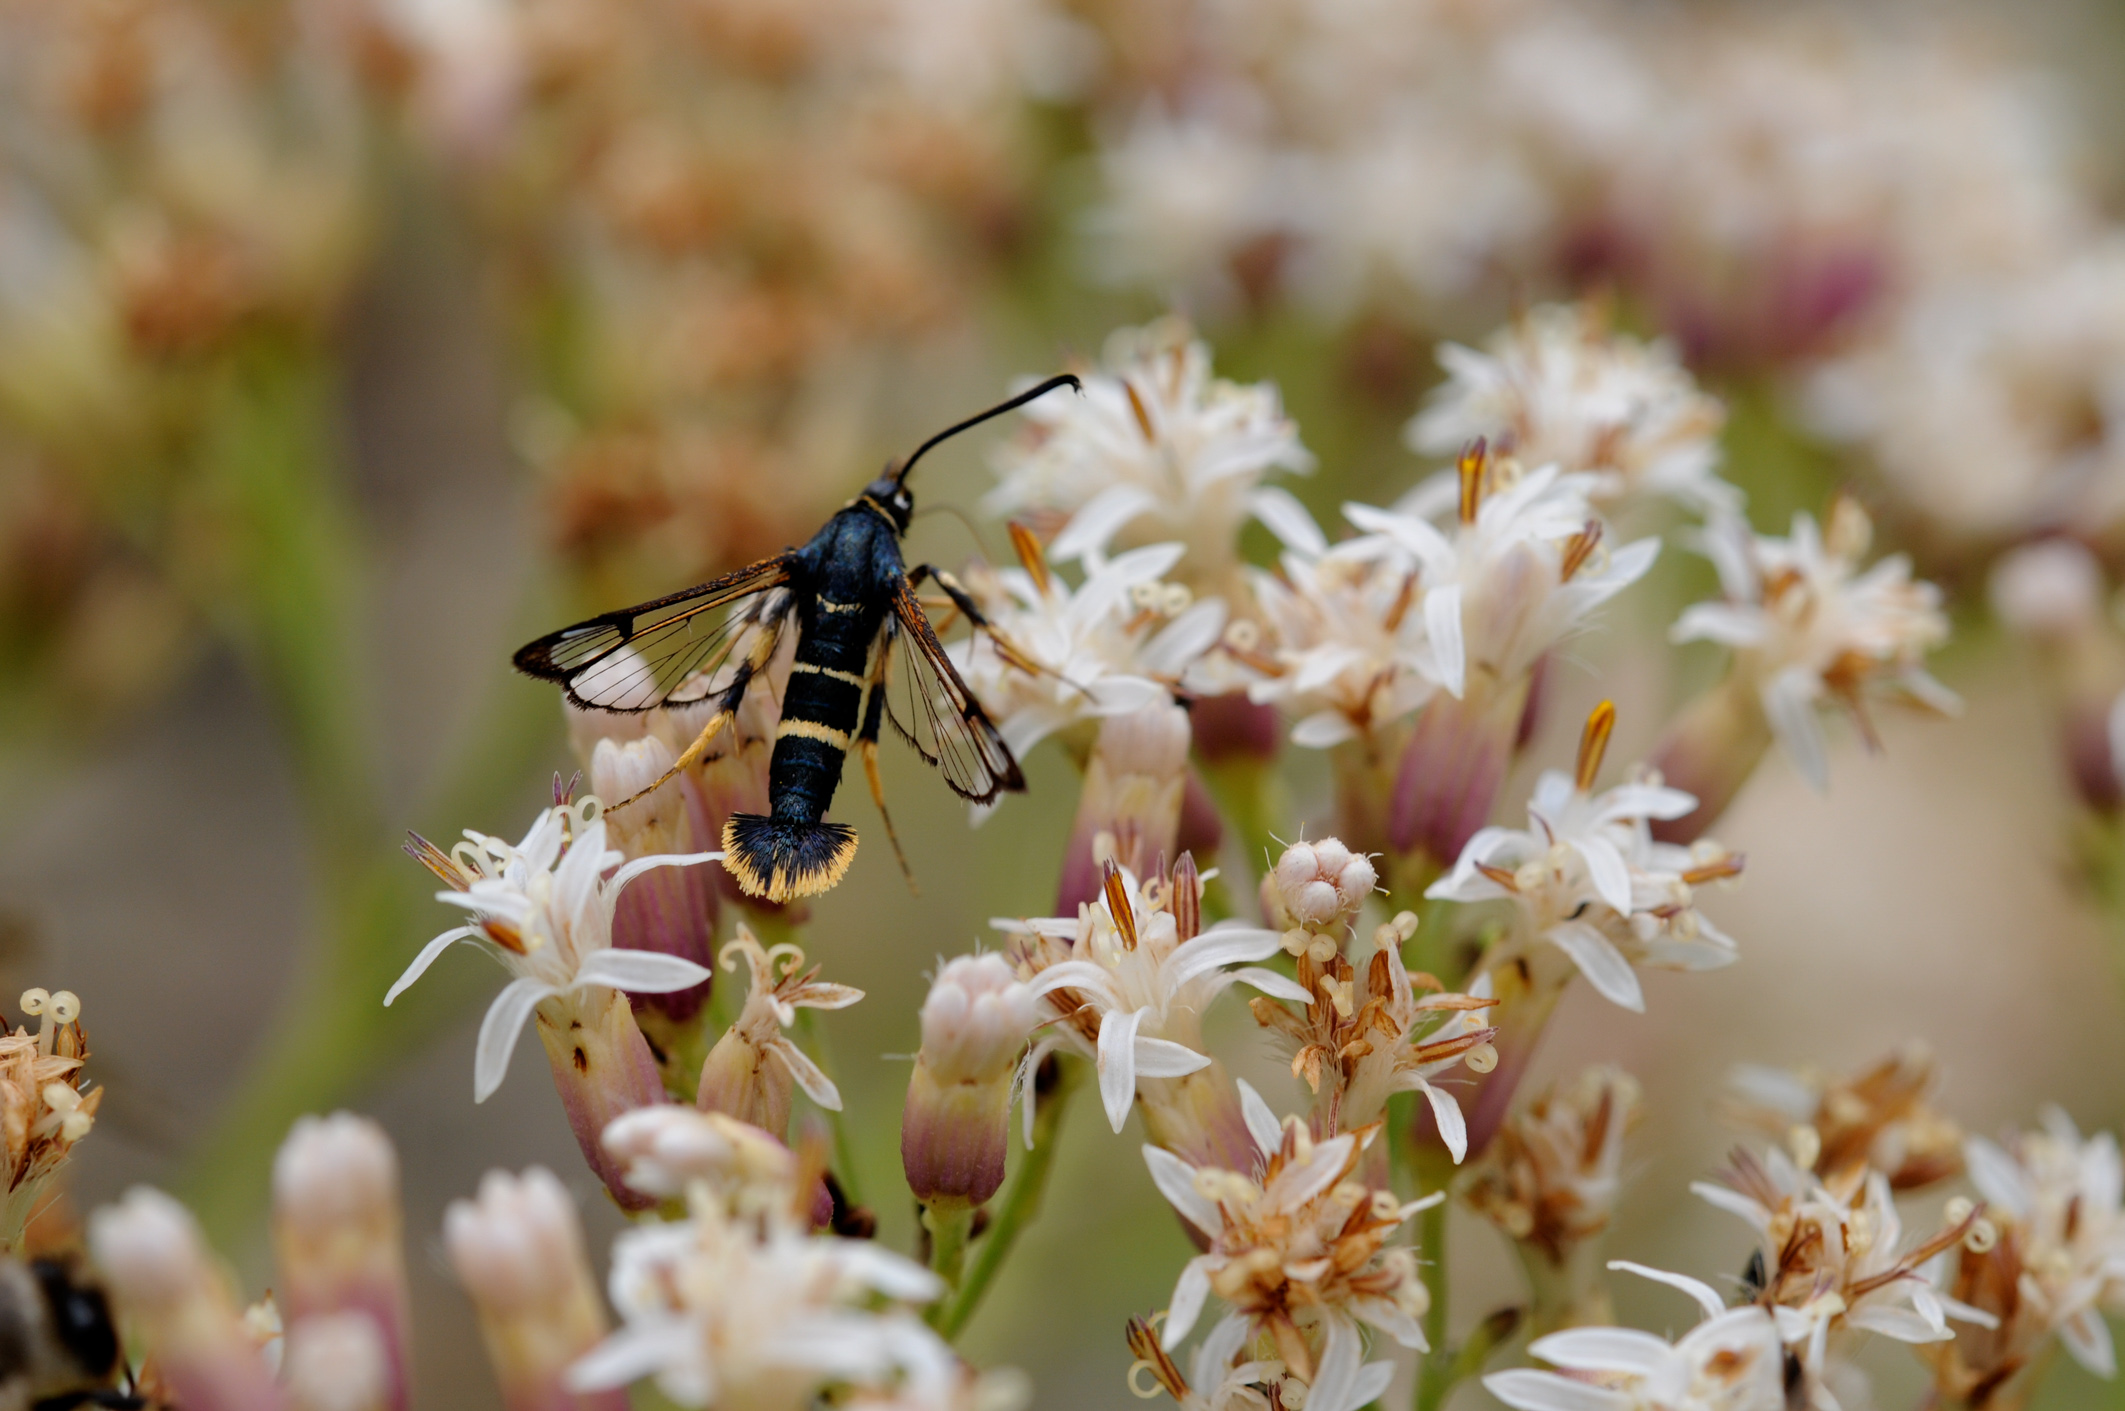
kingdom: Animalia
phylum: Arthropoda
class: Insecta
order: Lepidoptera
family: Sesiidae
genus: Synanthedon
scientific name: Synanthedon vespiformis
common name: Yellow-legged clearwing
